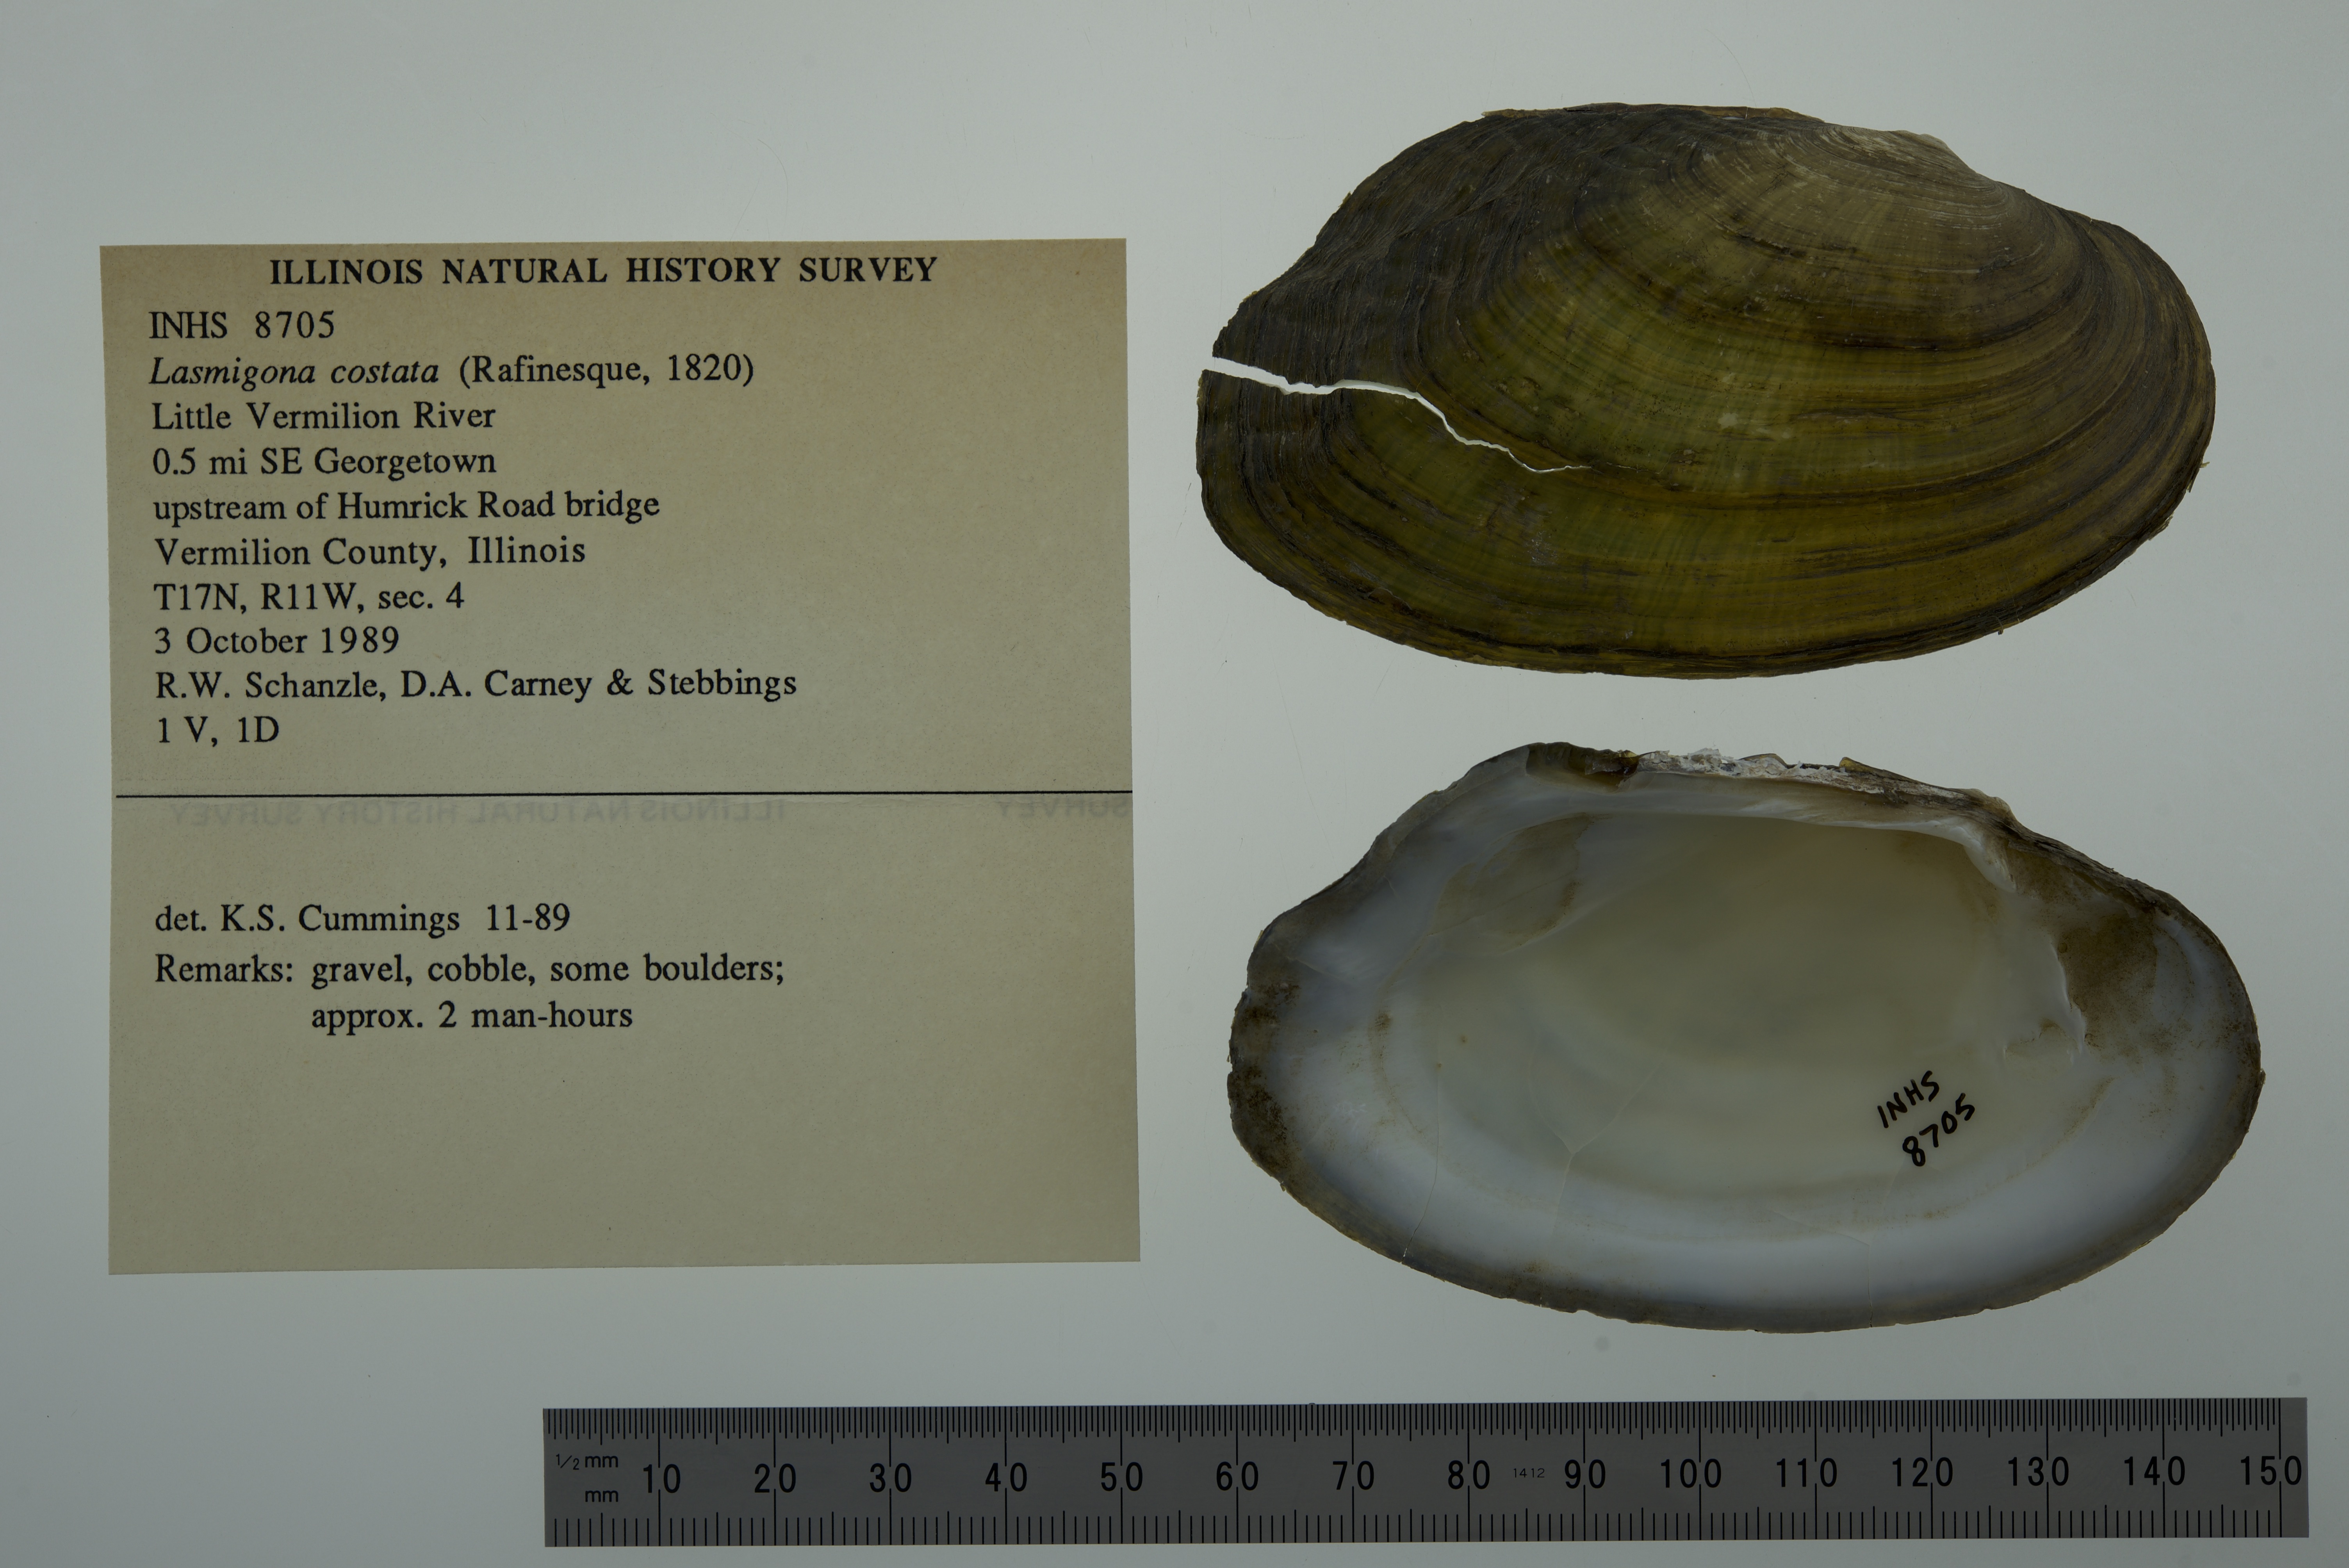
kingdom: Animalia
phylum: Mollusca
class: Bivalvia
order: Unionida
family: Unionidae
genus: Lasmigona
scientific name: Lasmigona costata
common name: Flutedshell
